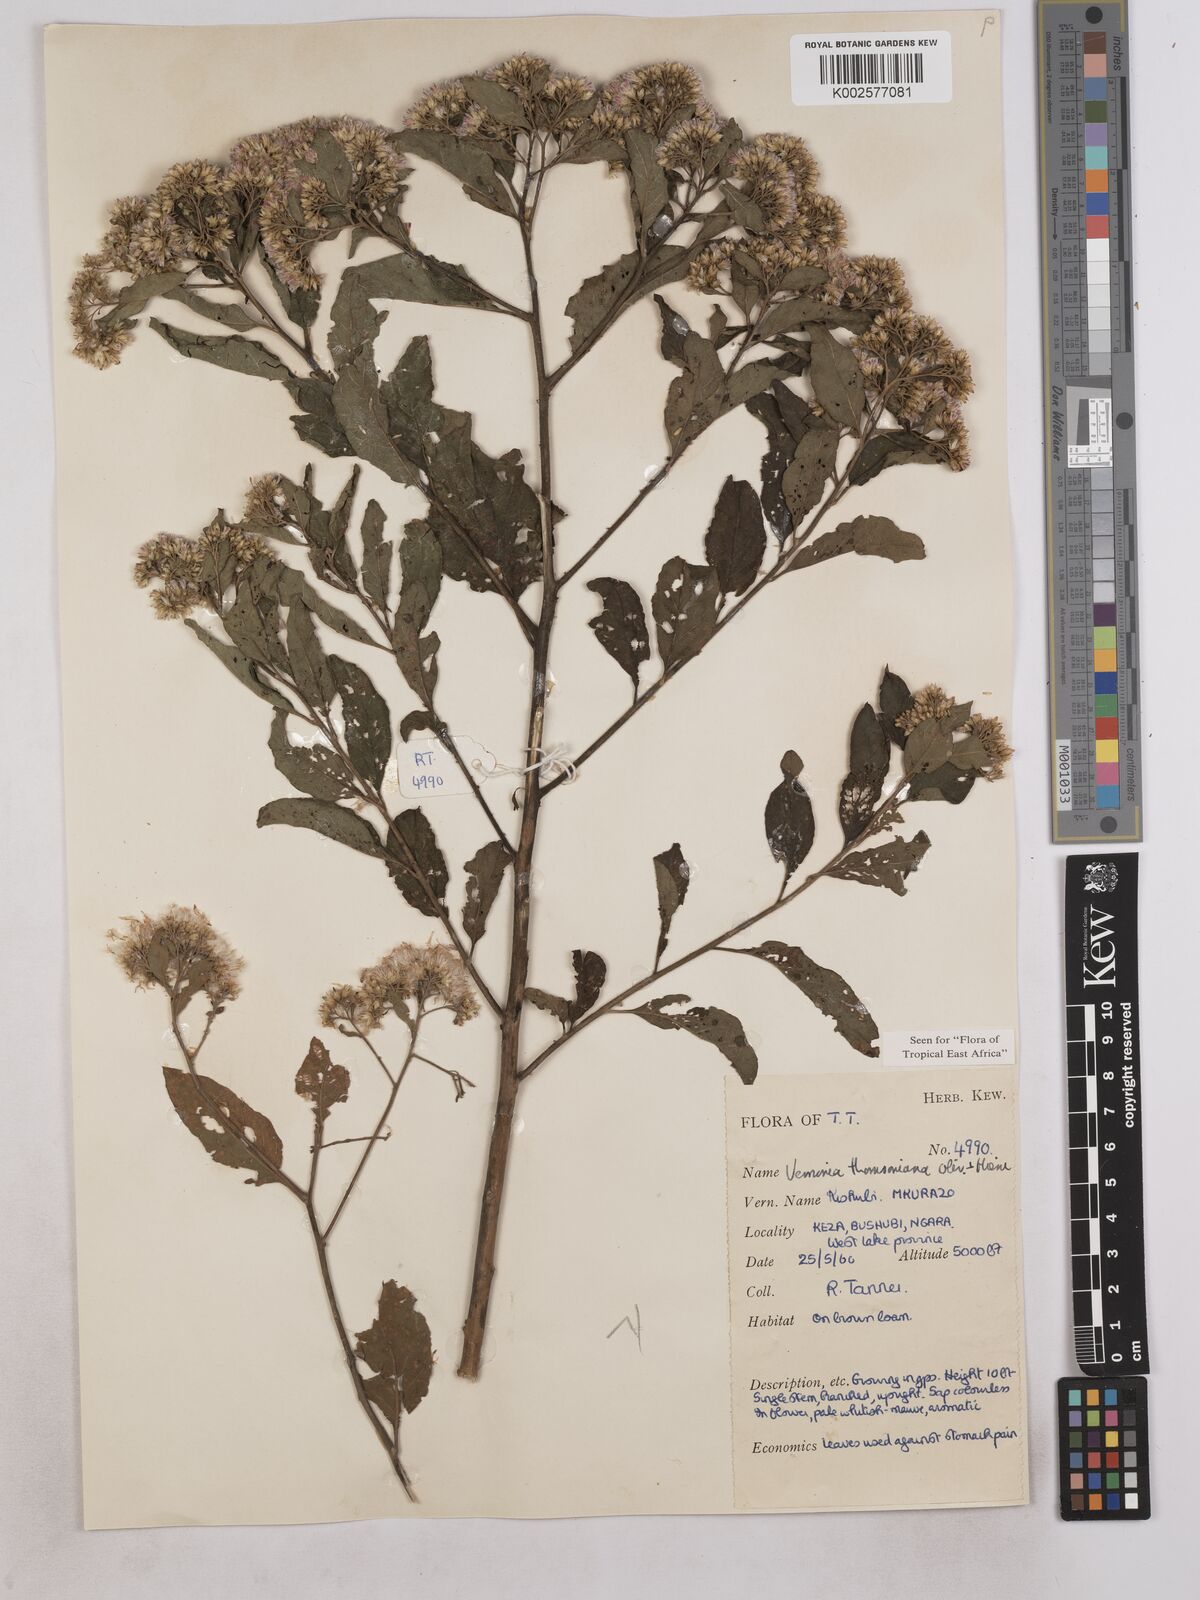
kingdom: Plantae
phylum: Tracheophyta
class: Magnoliopsida
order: Asterales
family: Asteraceae
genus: Gymnanthemum
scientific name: Gymnanthemum thomsonianum
